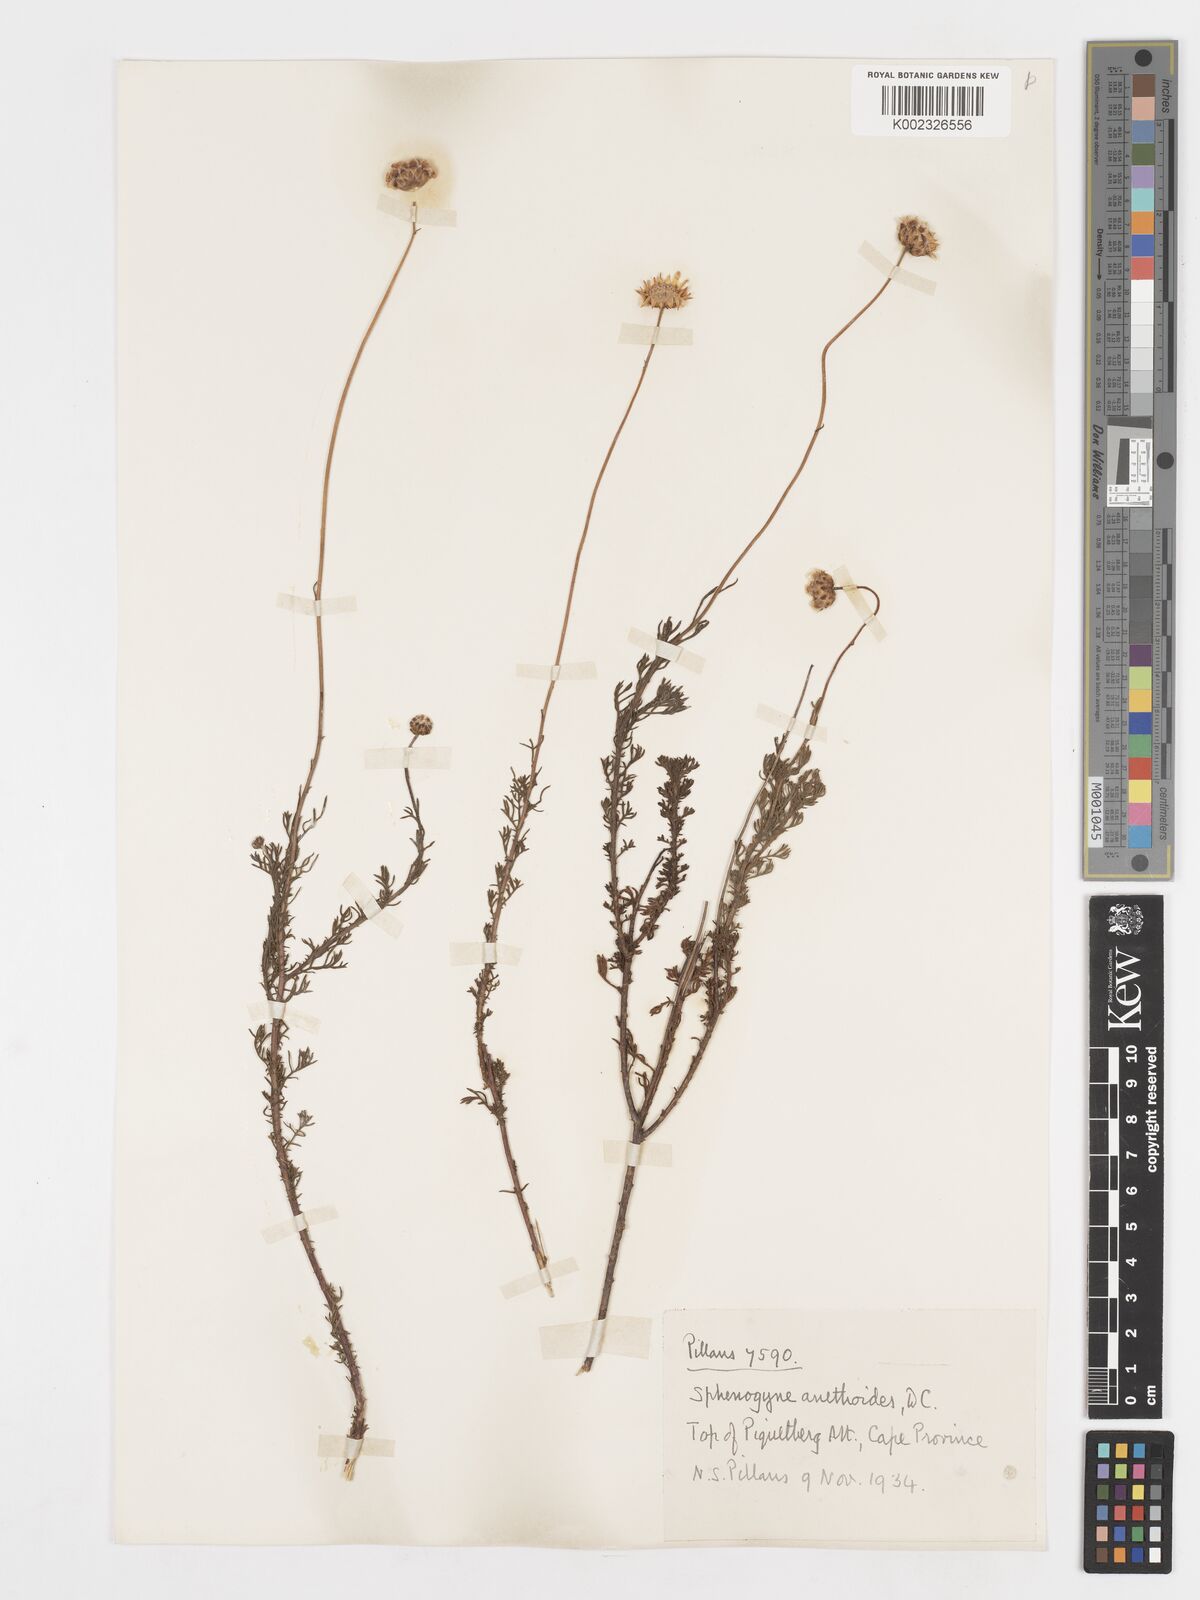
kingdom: Plantae
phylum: Tracheophyta
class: Magnoliopsida
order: Asterales
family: Asteraceae
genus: Ursinia
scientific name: Ursinia anethoides
